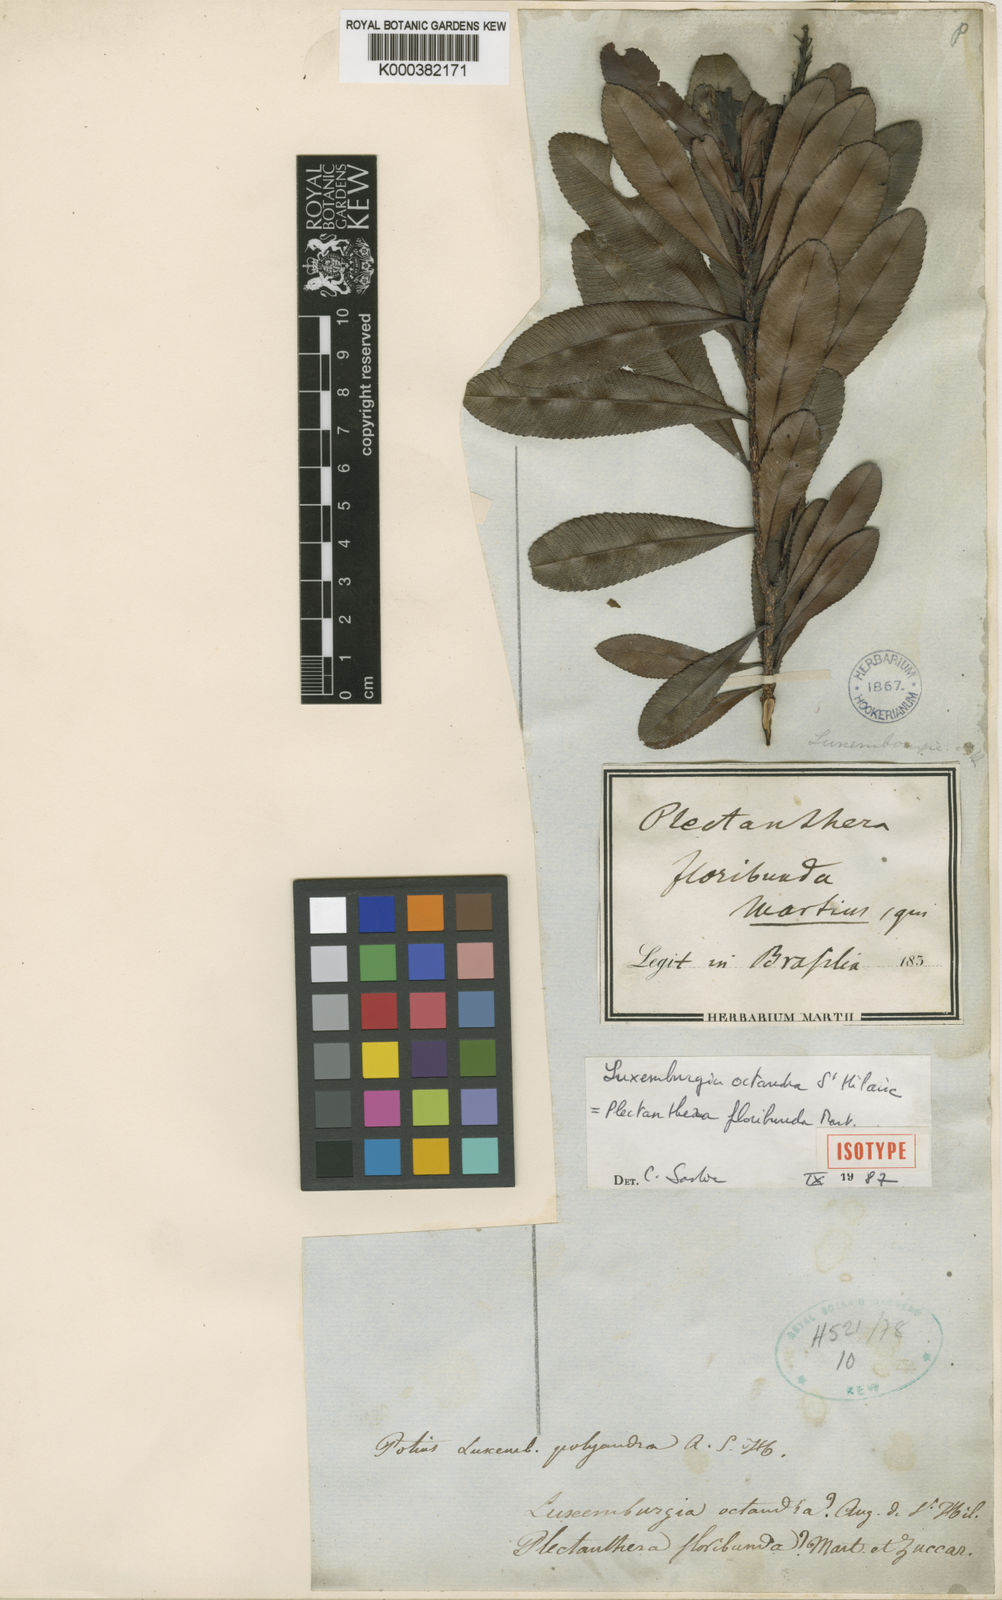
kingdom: Plantae
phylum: Tracheophyta
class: Magnoliopsida
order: Malpighiales
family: Ochnaceae
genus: Luxemburgia
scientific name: Luxemburgia octandra
